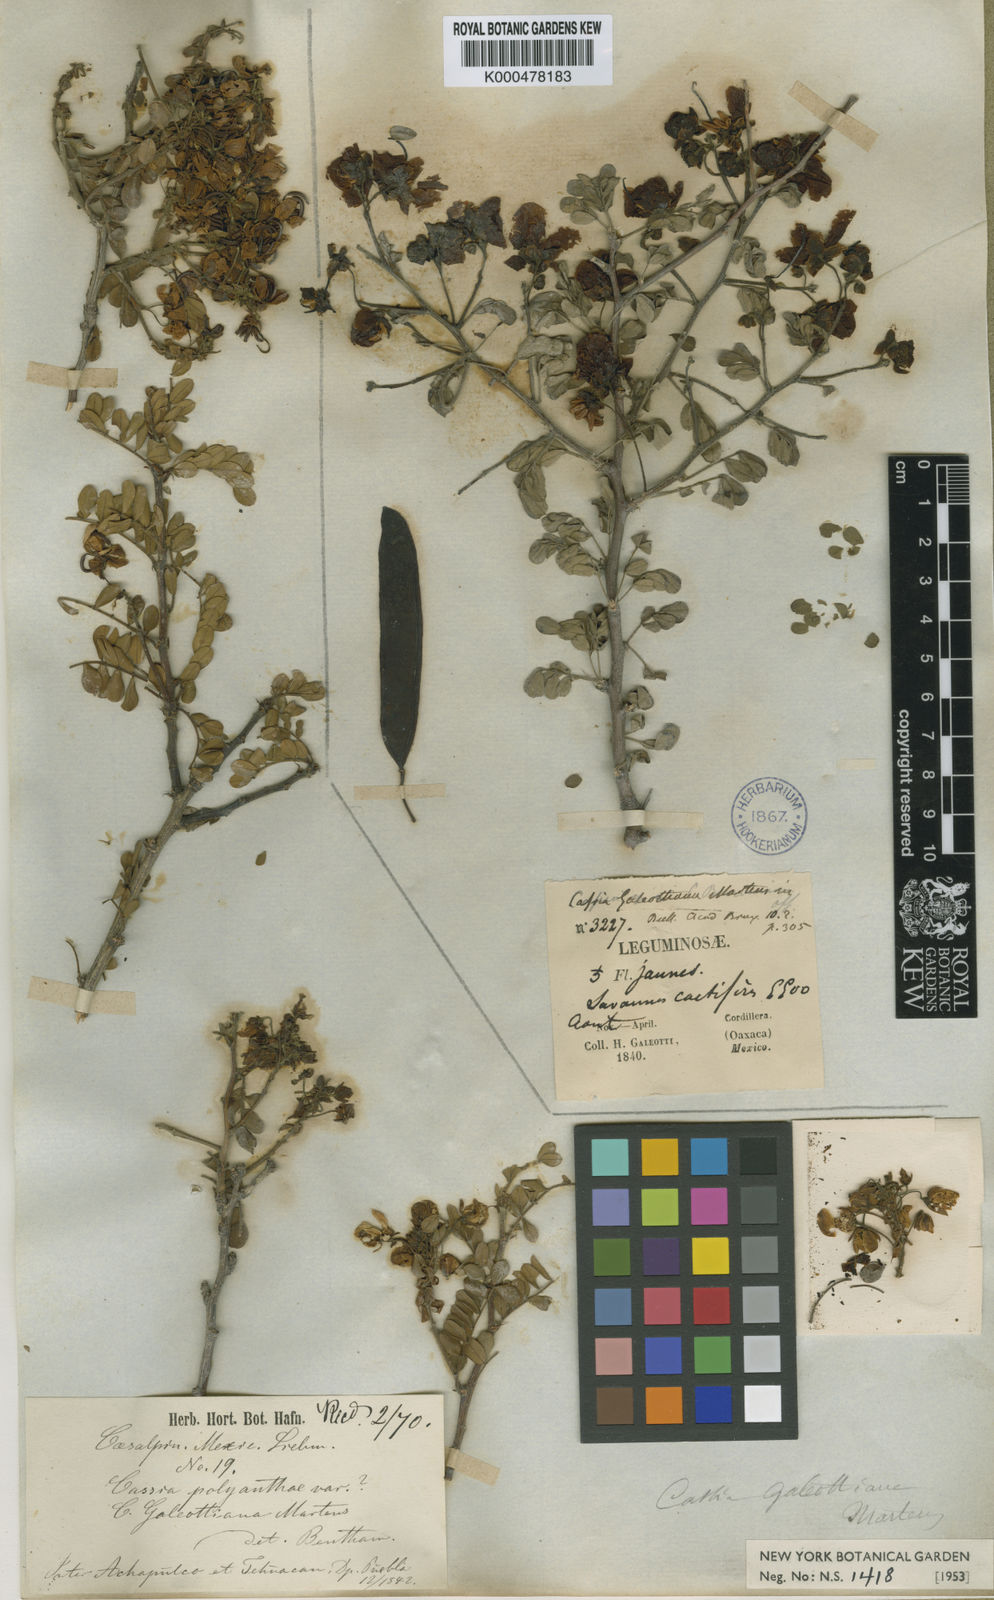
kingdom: Plantae
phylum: Tracheophyta
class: Magnoliopsida
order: Fabales
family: Fabaceae
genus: Senna
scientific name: Senna galeottiana
